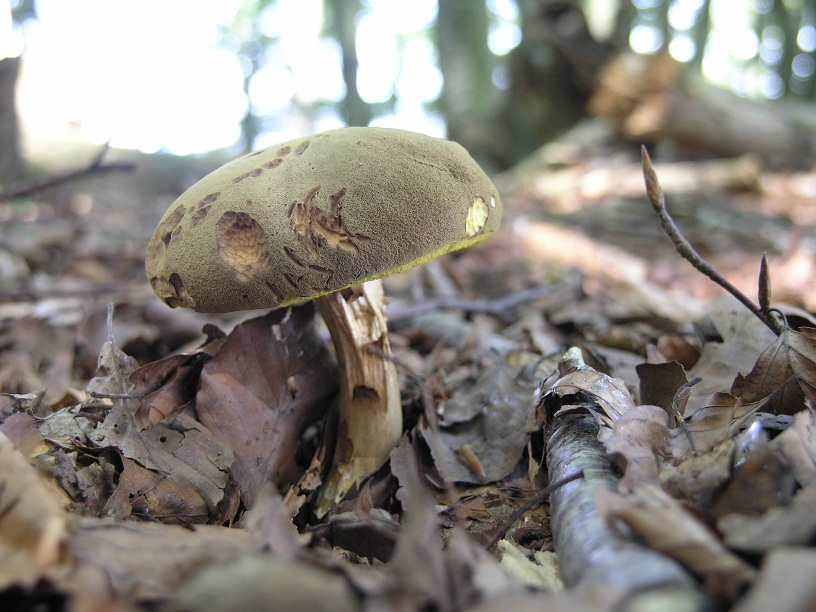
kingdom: Fungi
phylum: Basidiomycota
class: Agaricomycetes
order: Boletales
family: Boletaceae
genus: Xerocomus
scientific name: Xerocomus subtomentosus
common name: filtet rørhat
